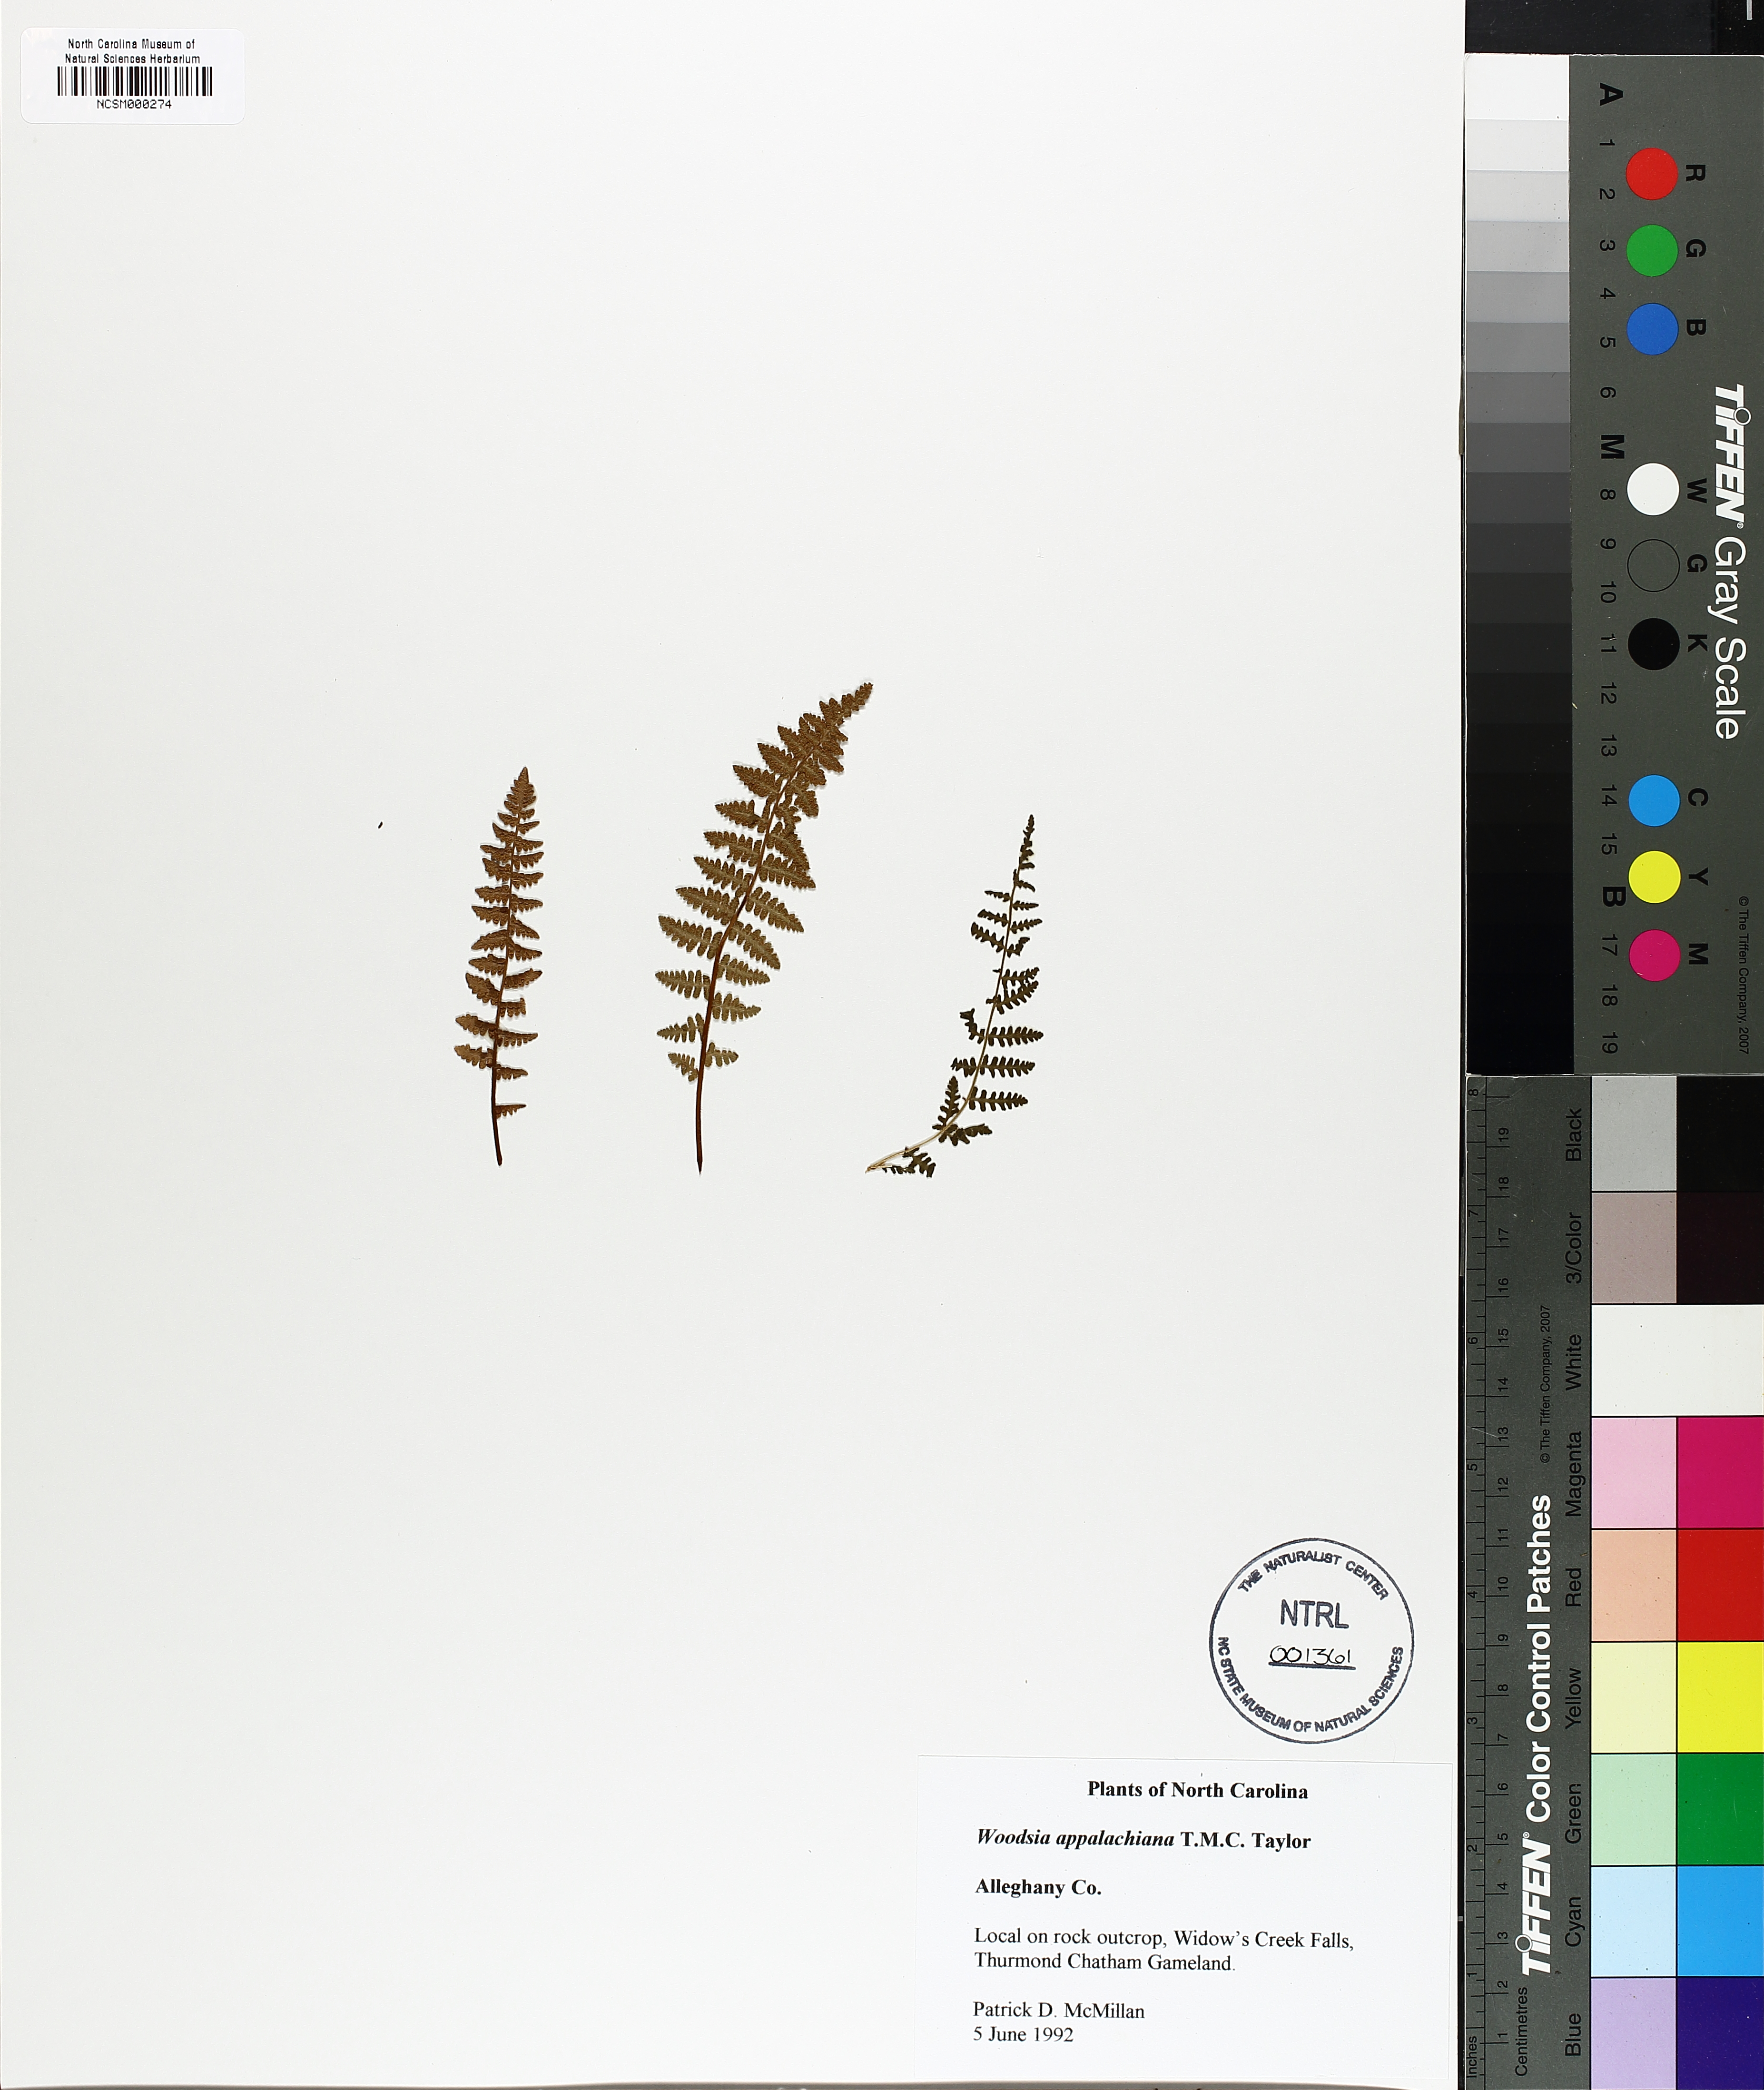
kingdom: Plantae
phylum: Tracheophyta
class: Polypodiopsida
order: Polypodiales
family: Woodsiaceae
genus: Physematium
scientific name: Physematium scopulinum
